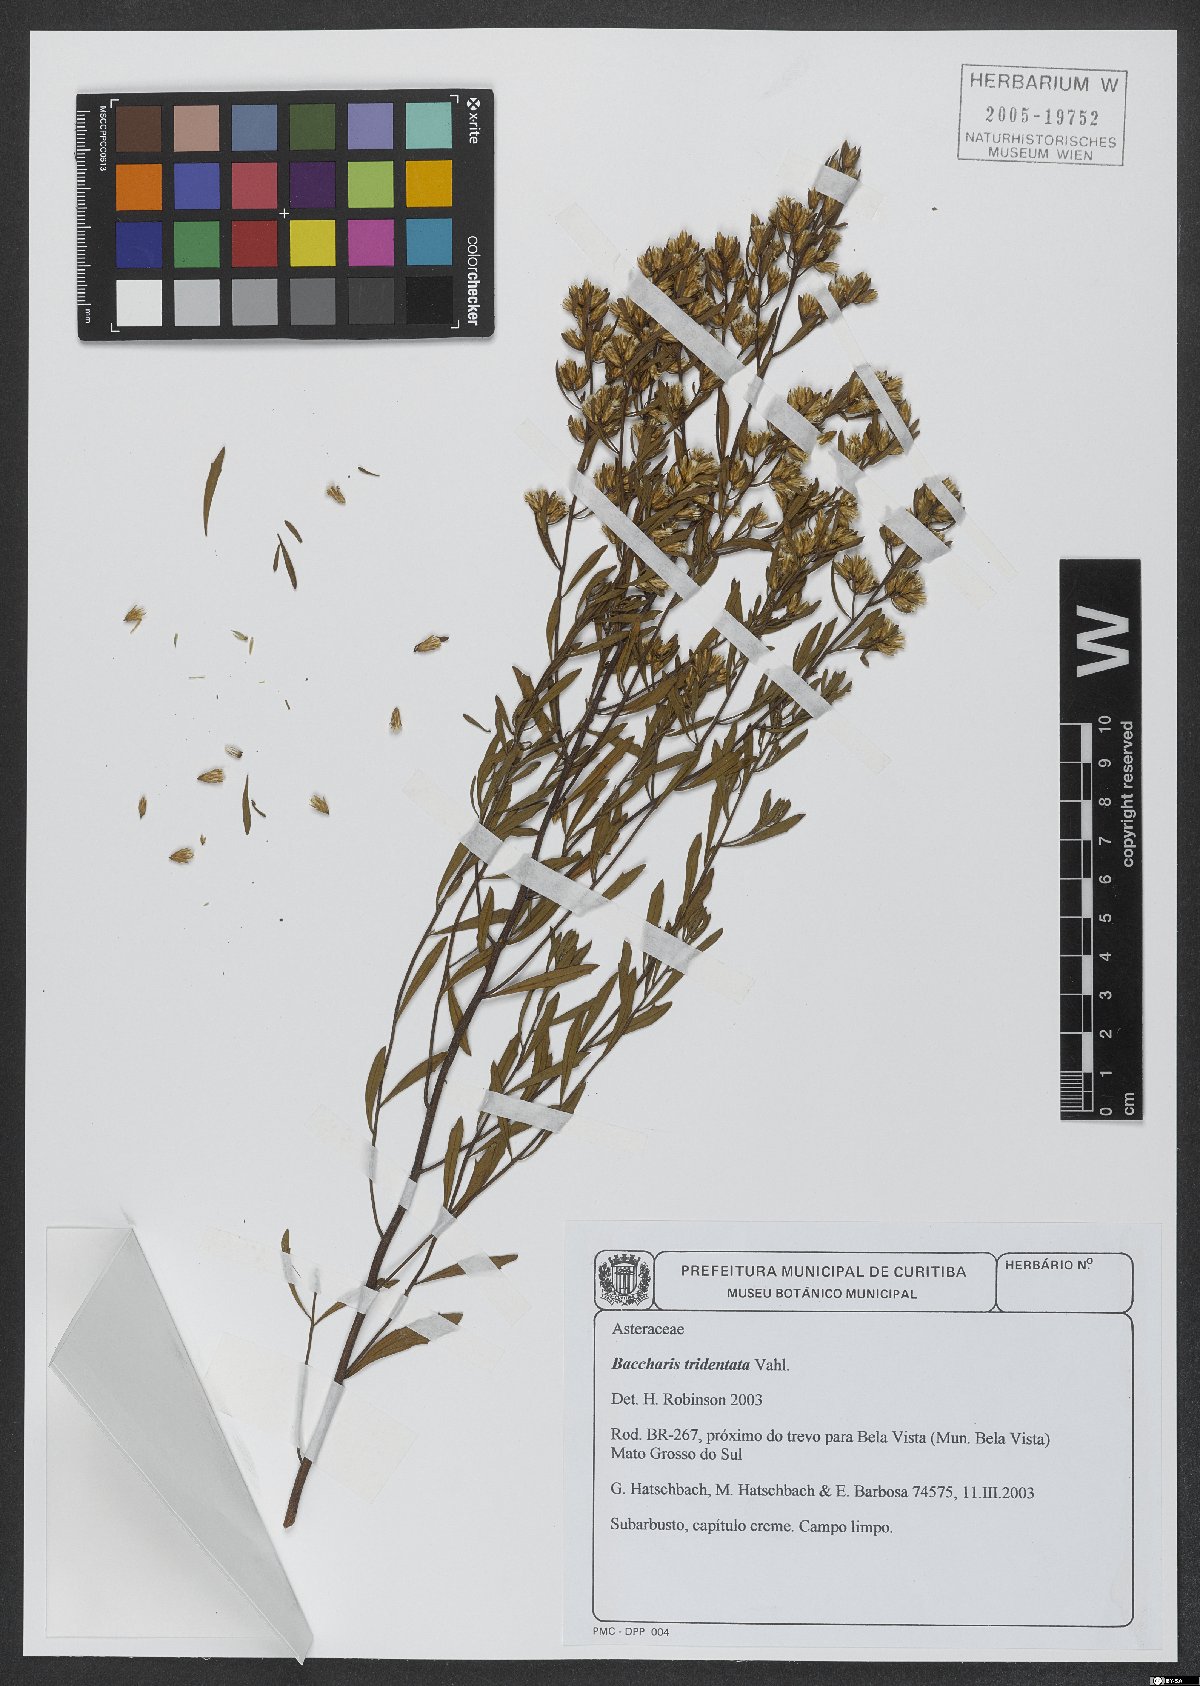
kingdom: Plantae
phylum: Tracheophyta
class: Magnoliopsida
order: Asterales
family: Asteraceae
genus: Baccharis
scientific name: Baccharis tridentata
